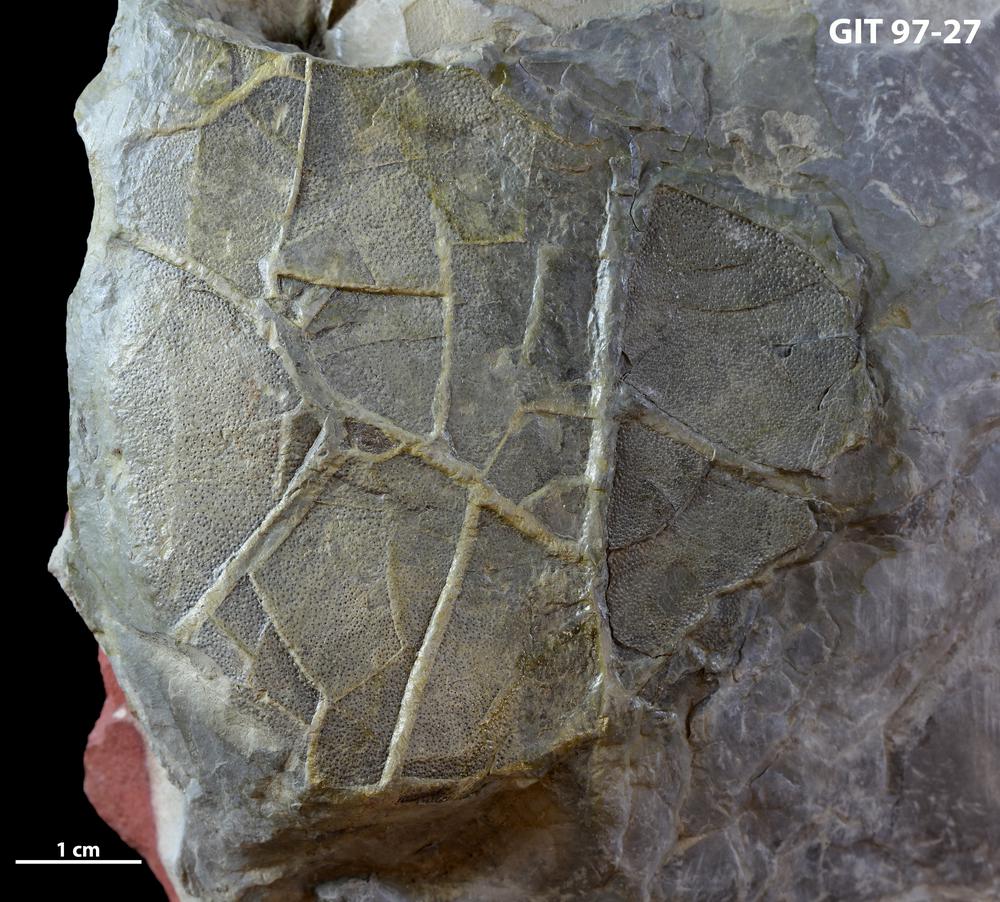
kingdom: Animalia
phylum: Chordata
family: Holonematidae
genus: Holonema
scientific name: Holonema
